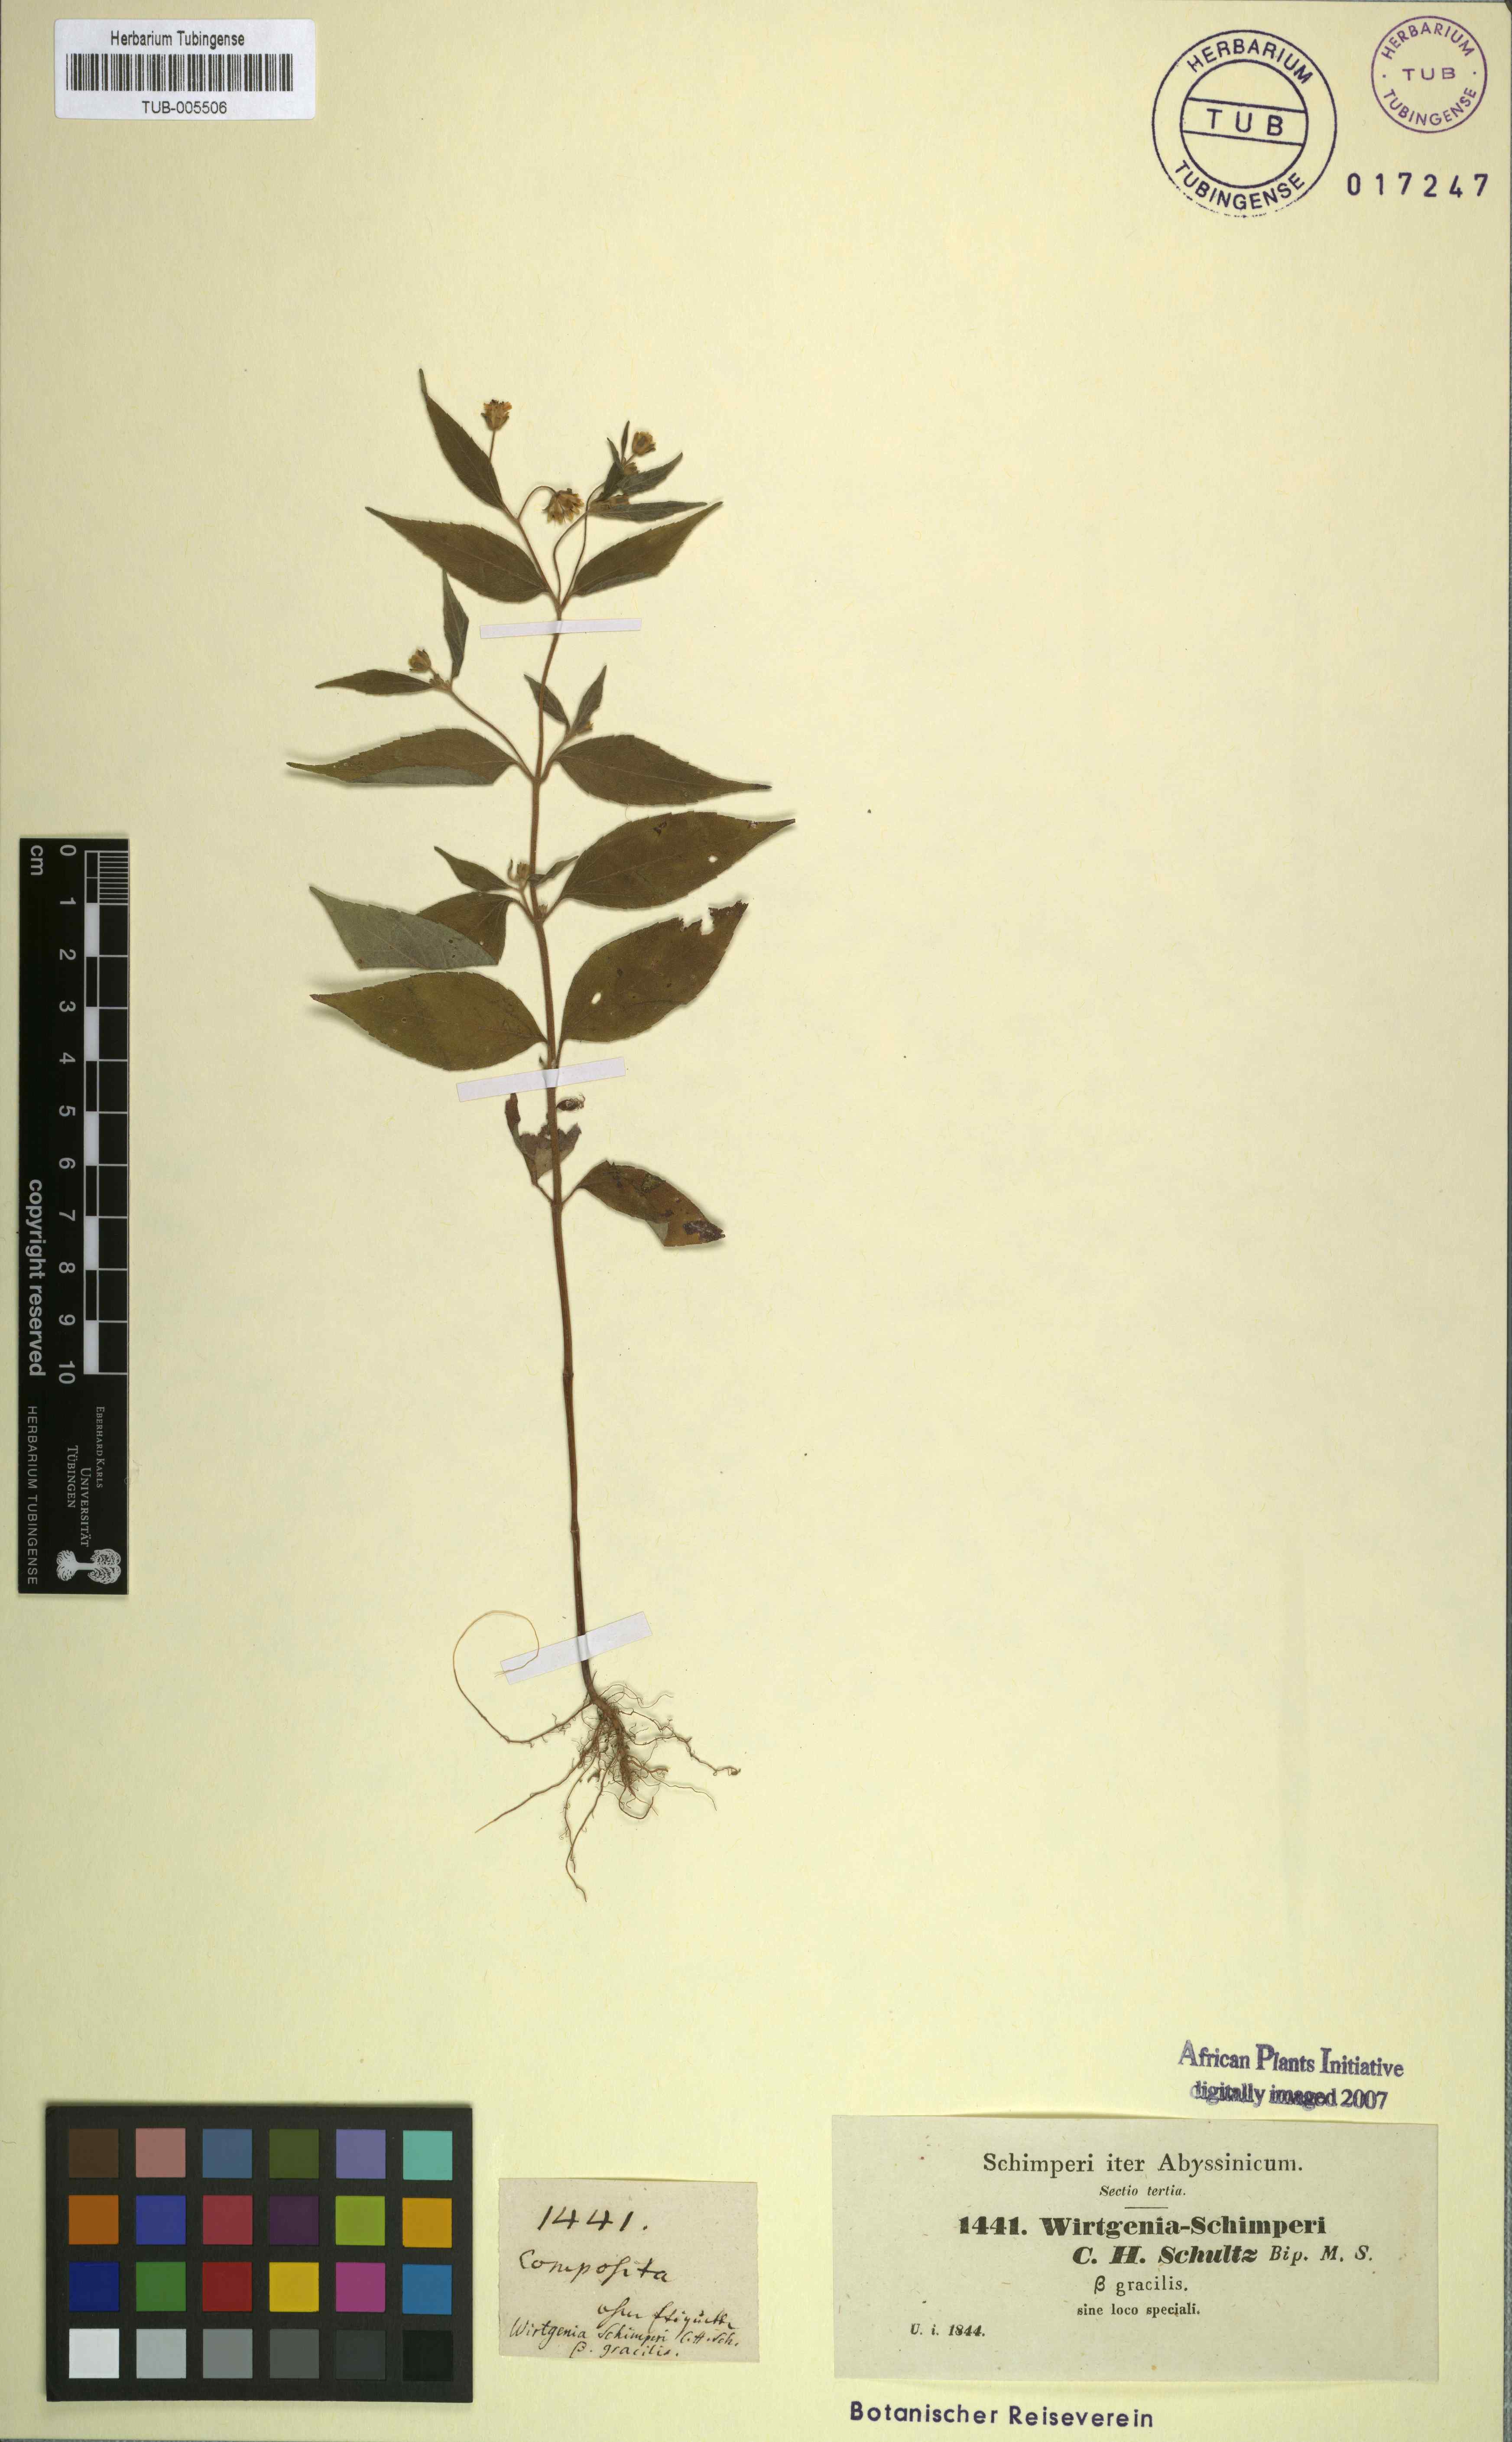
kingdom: Plantae
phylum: Tracheophyta
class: Magnoliopsida
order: Asterales
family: Asteraceae
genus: Aspilia
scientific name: Aspilia helianthoides
